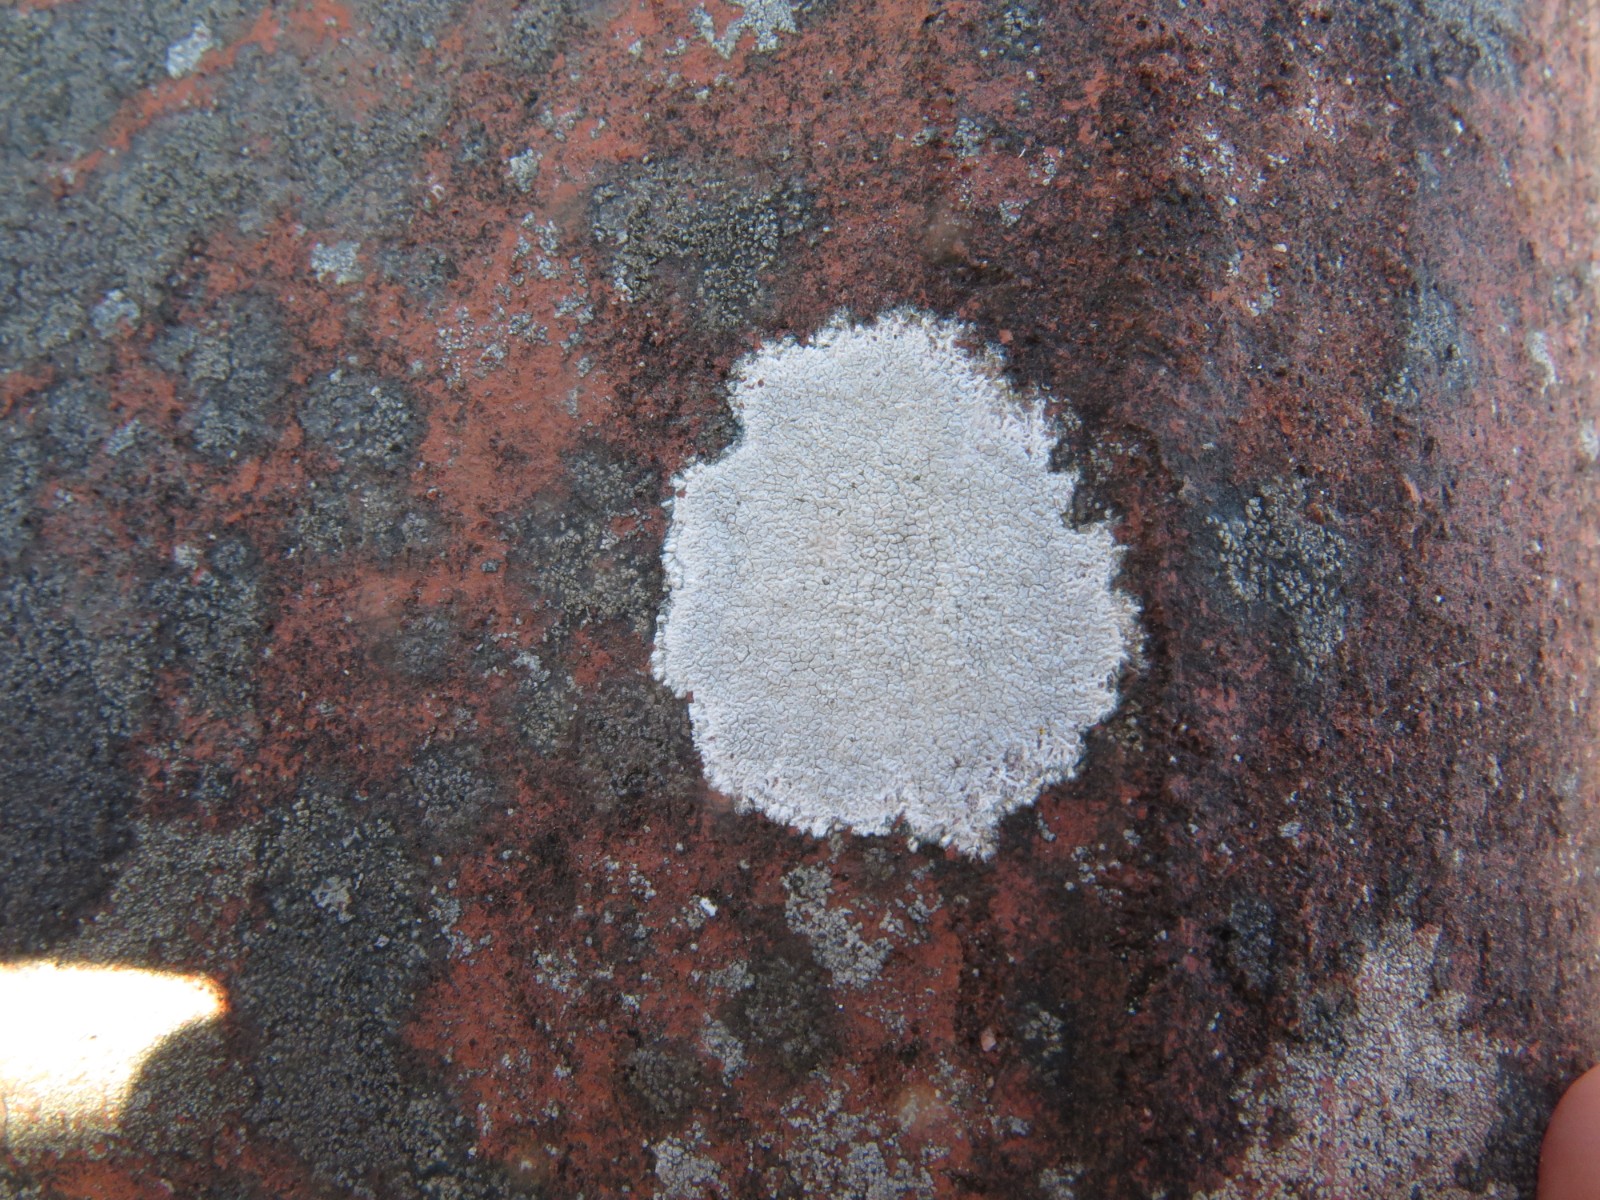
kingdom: Fungi
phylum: Ascomycota
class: Lecanoromycetes
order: Lecanorales
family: Lecanoraceae
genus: Glaucomaria
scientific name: Glaucomaria rupicola
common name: stengærde-kantskivelav
